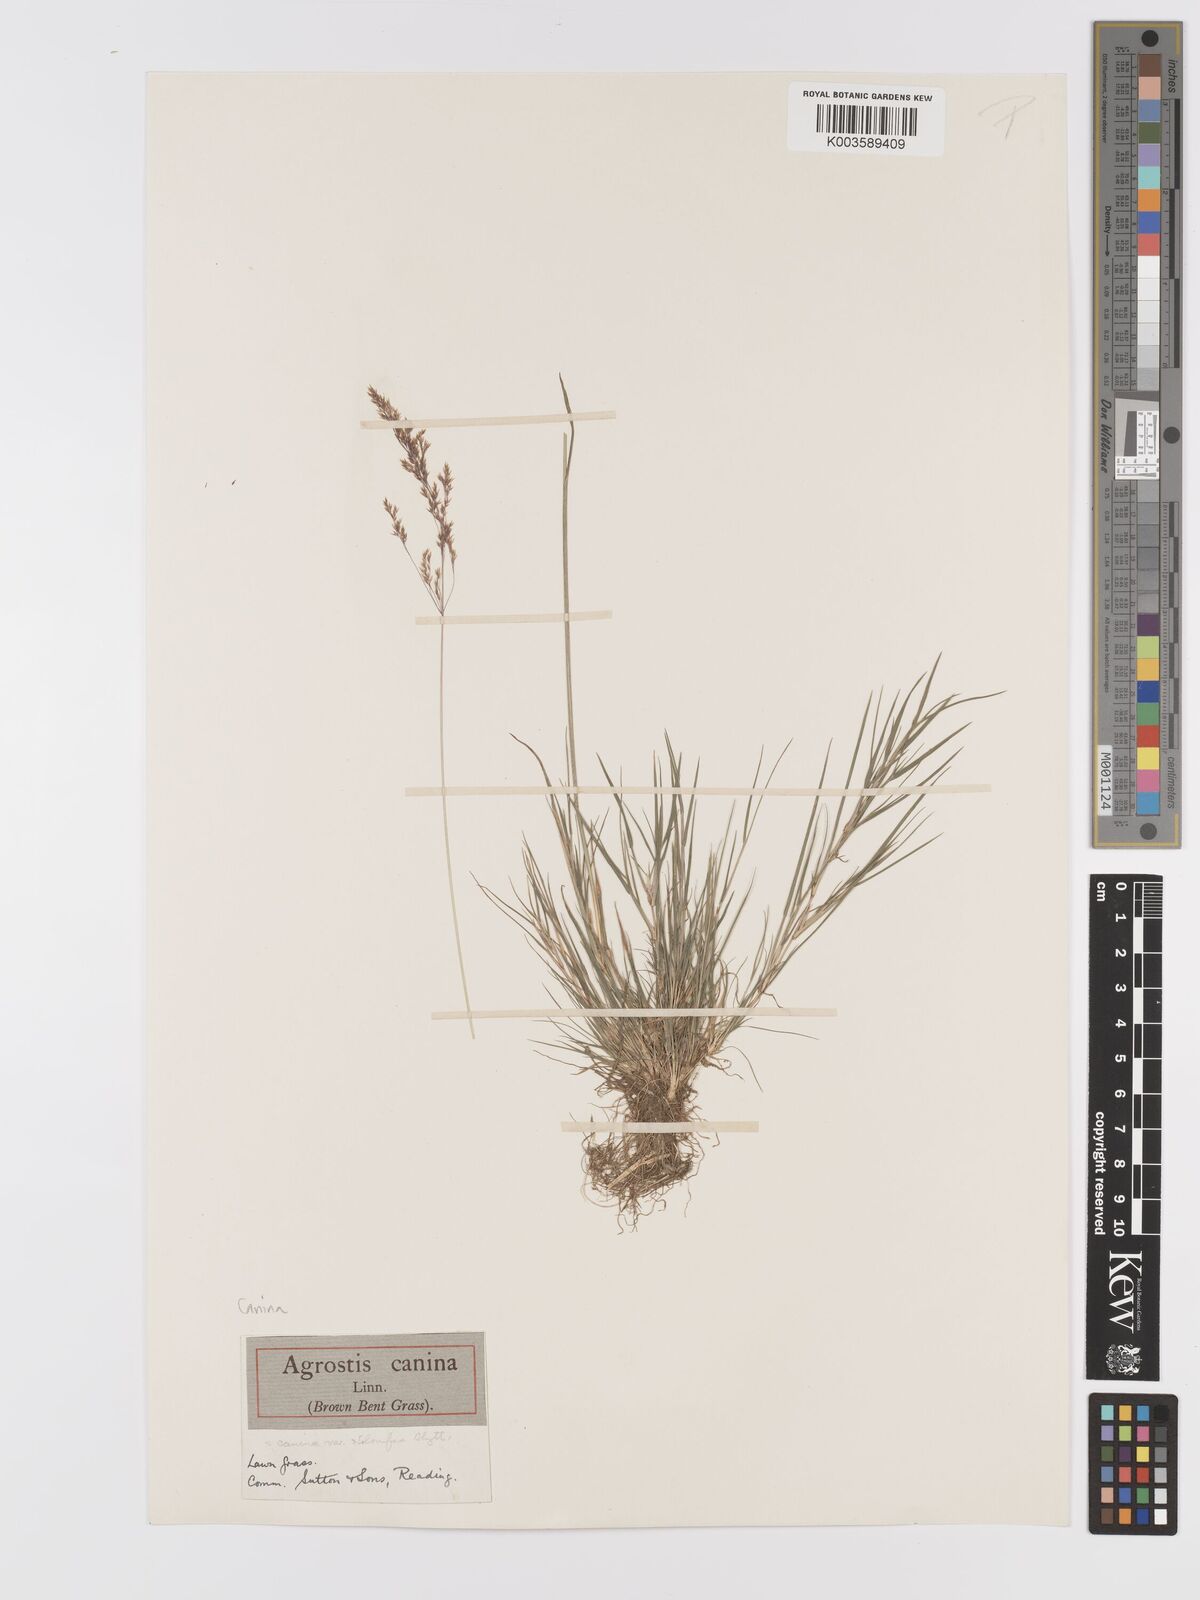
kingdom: Plantae
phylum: Tracheophyta
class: Liliopsida
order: Poales
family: Poaceae
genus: Agrostis
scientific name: Agrostis canina
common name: Velvet bent
